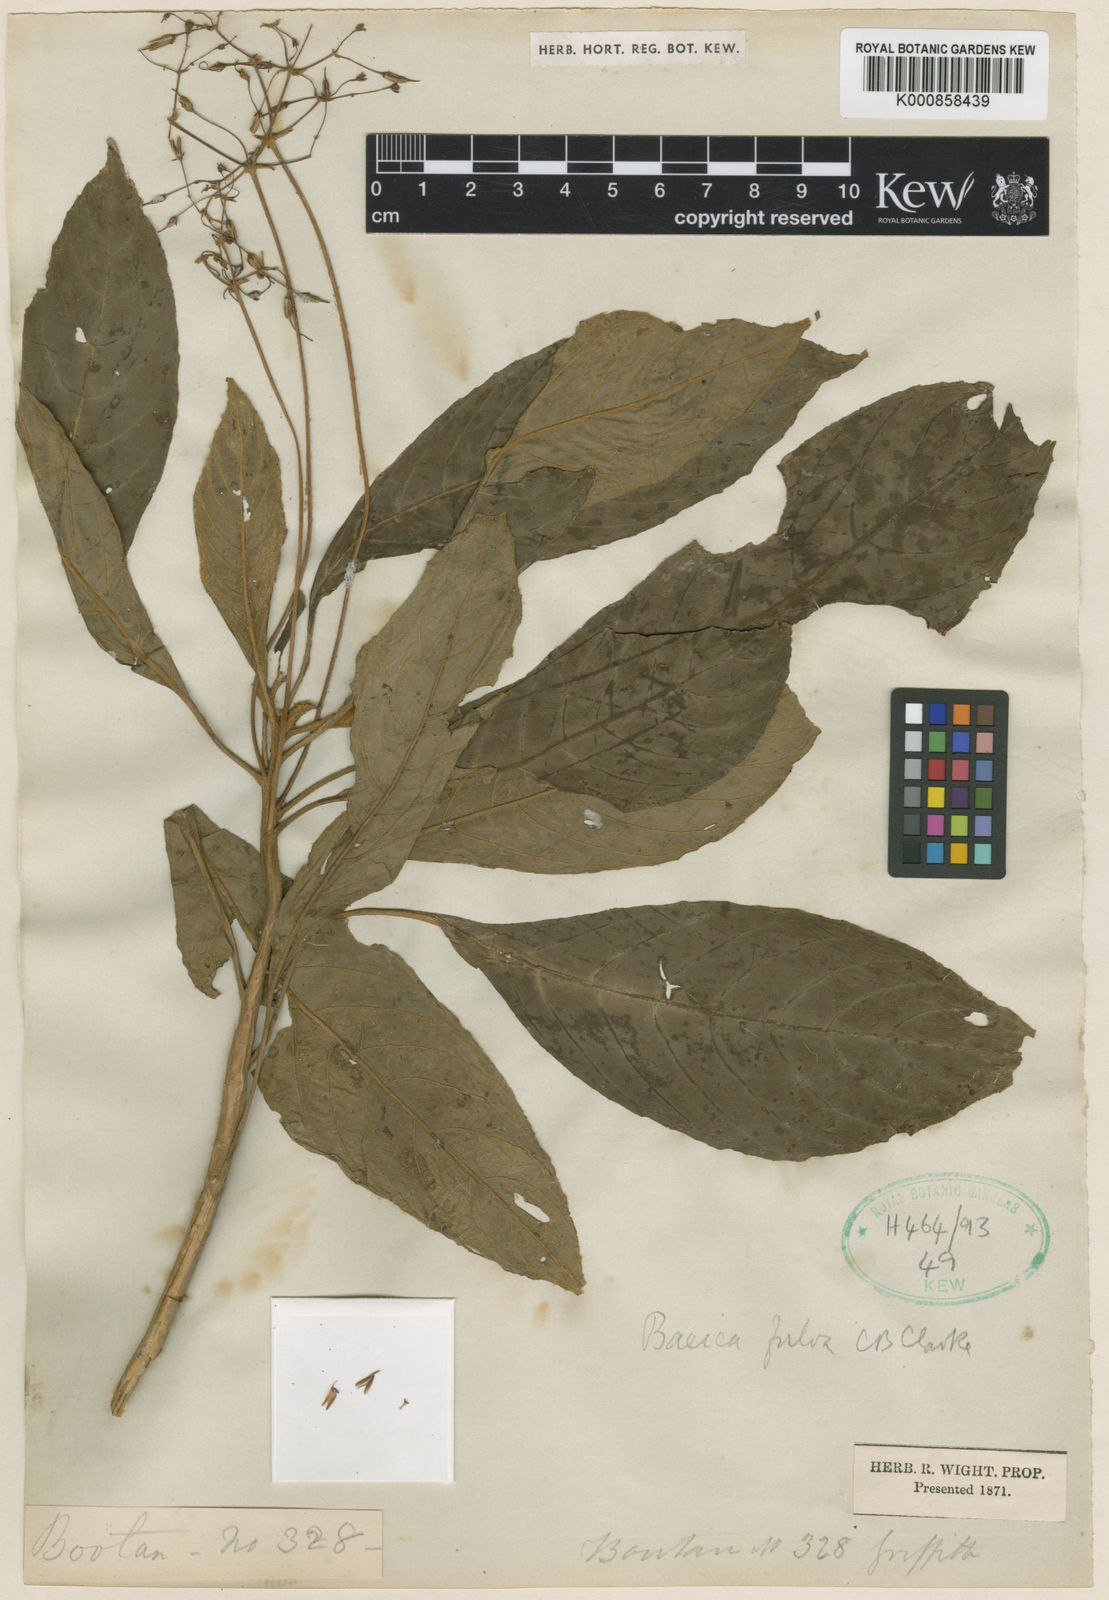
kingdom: Plantae
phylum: Tracheophyta
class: Magnoliopsida
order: Lamiales
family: Gesneriaceae
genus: Boeica
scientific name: Boeica fulva
